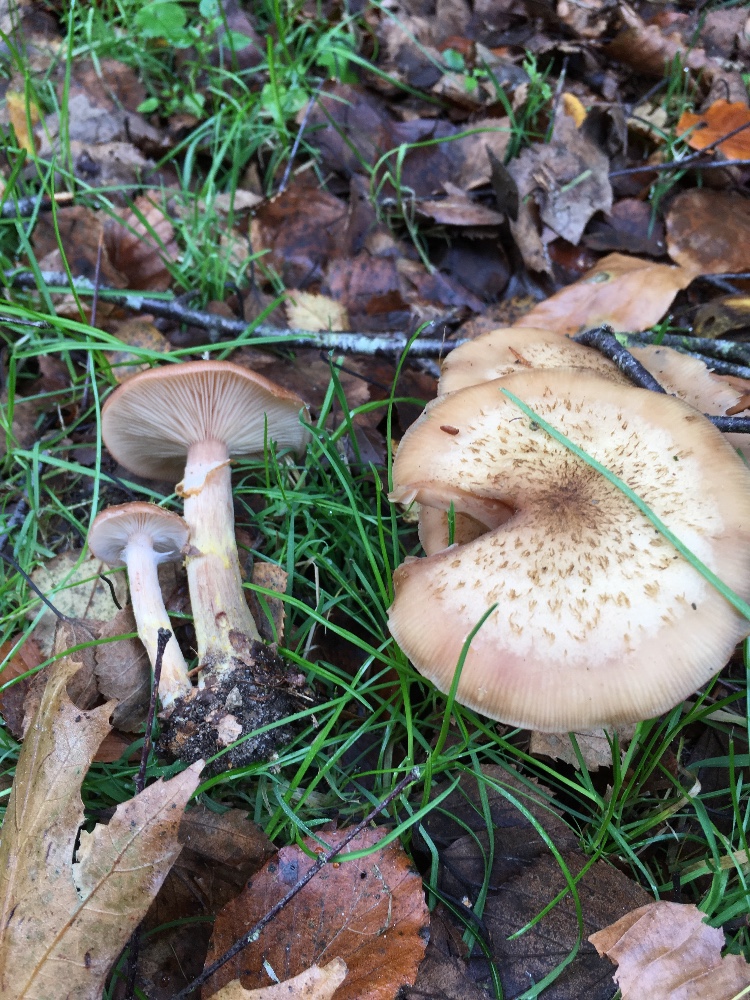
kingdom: Fungi
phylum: Basidiomycota
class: Agaricomycetes
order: Agaricales
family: Physalacriaceae
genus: Armillaria
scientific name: Armillaria lutea
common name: køllestokket honningsvamp
